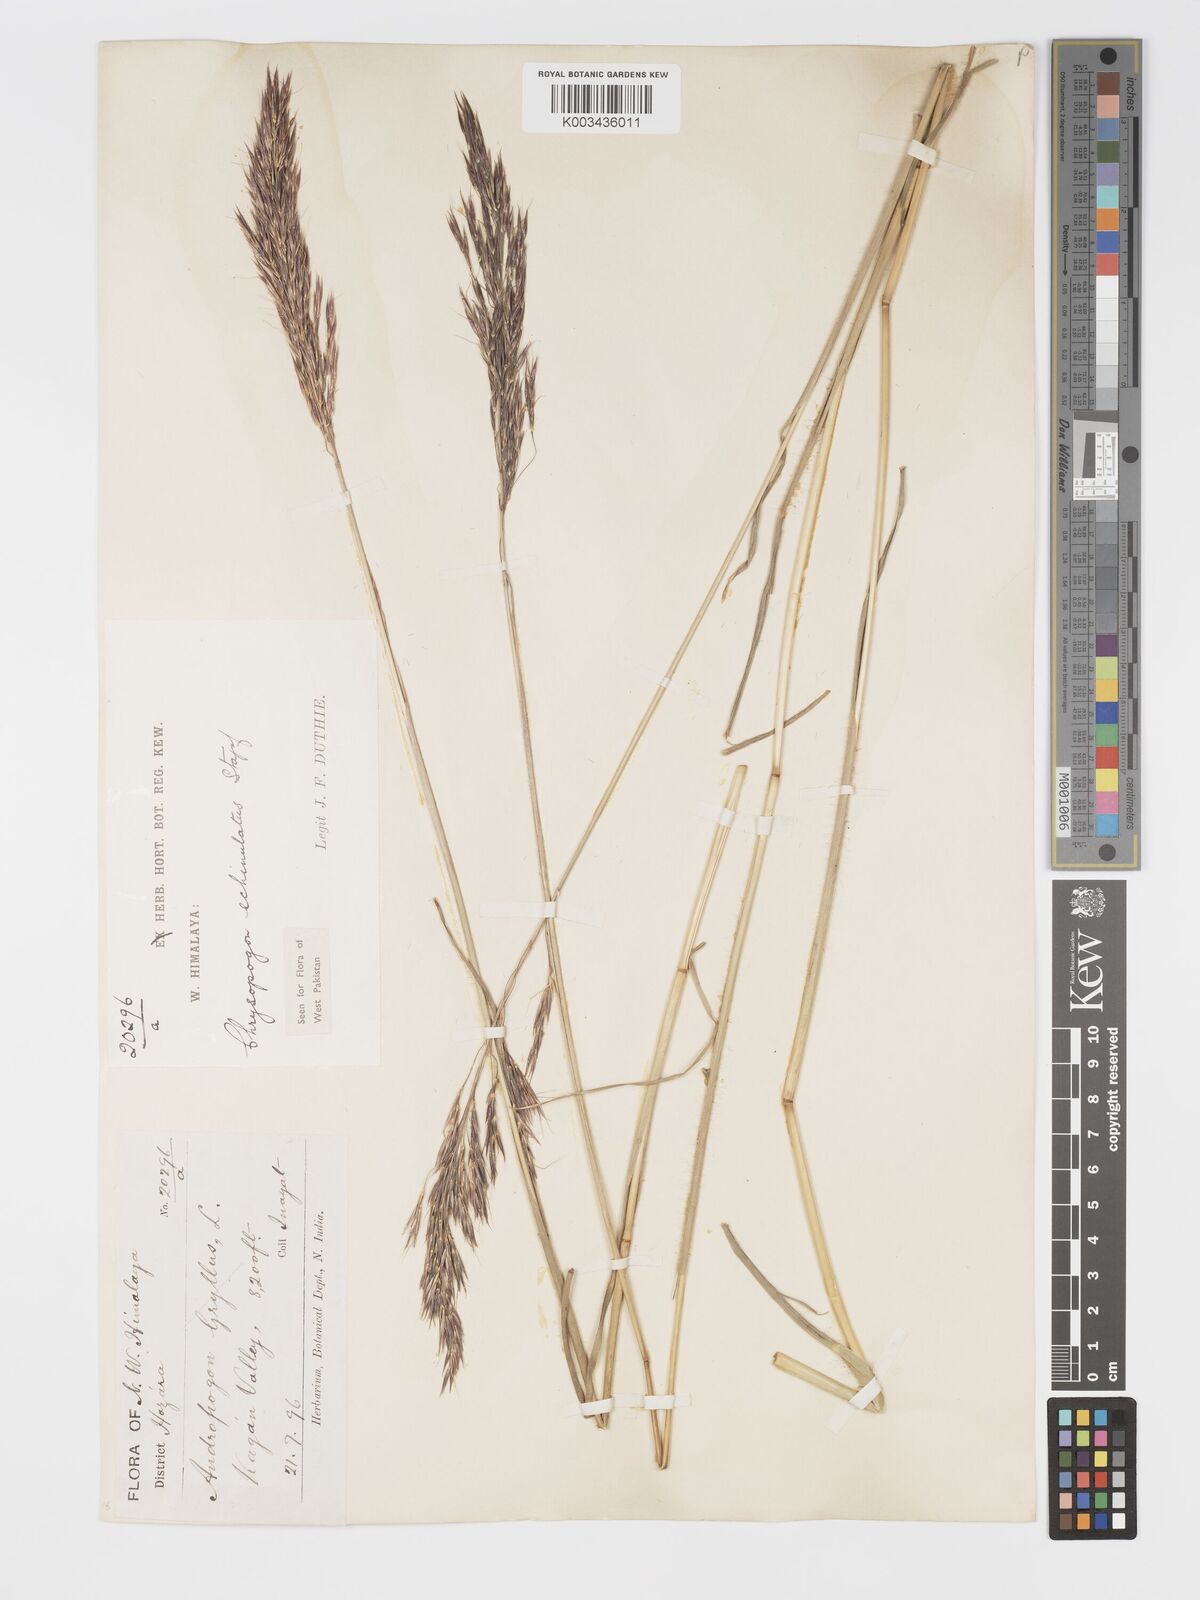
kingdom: Plantae
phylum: Tracheophyta
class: Liliopsida
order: Poales
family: Poaceae
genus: Chrysopogon
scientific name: Chrysopogon gryllus
